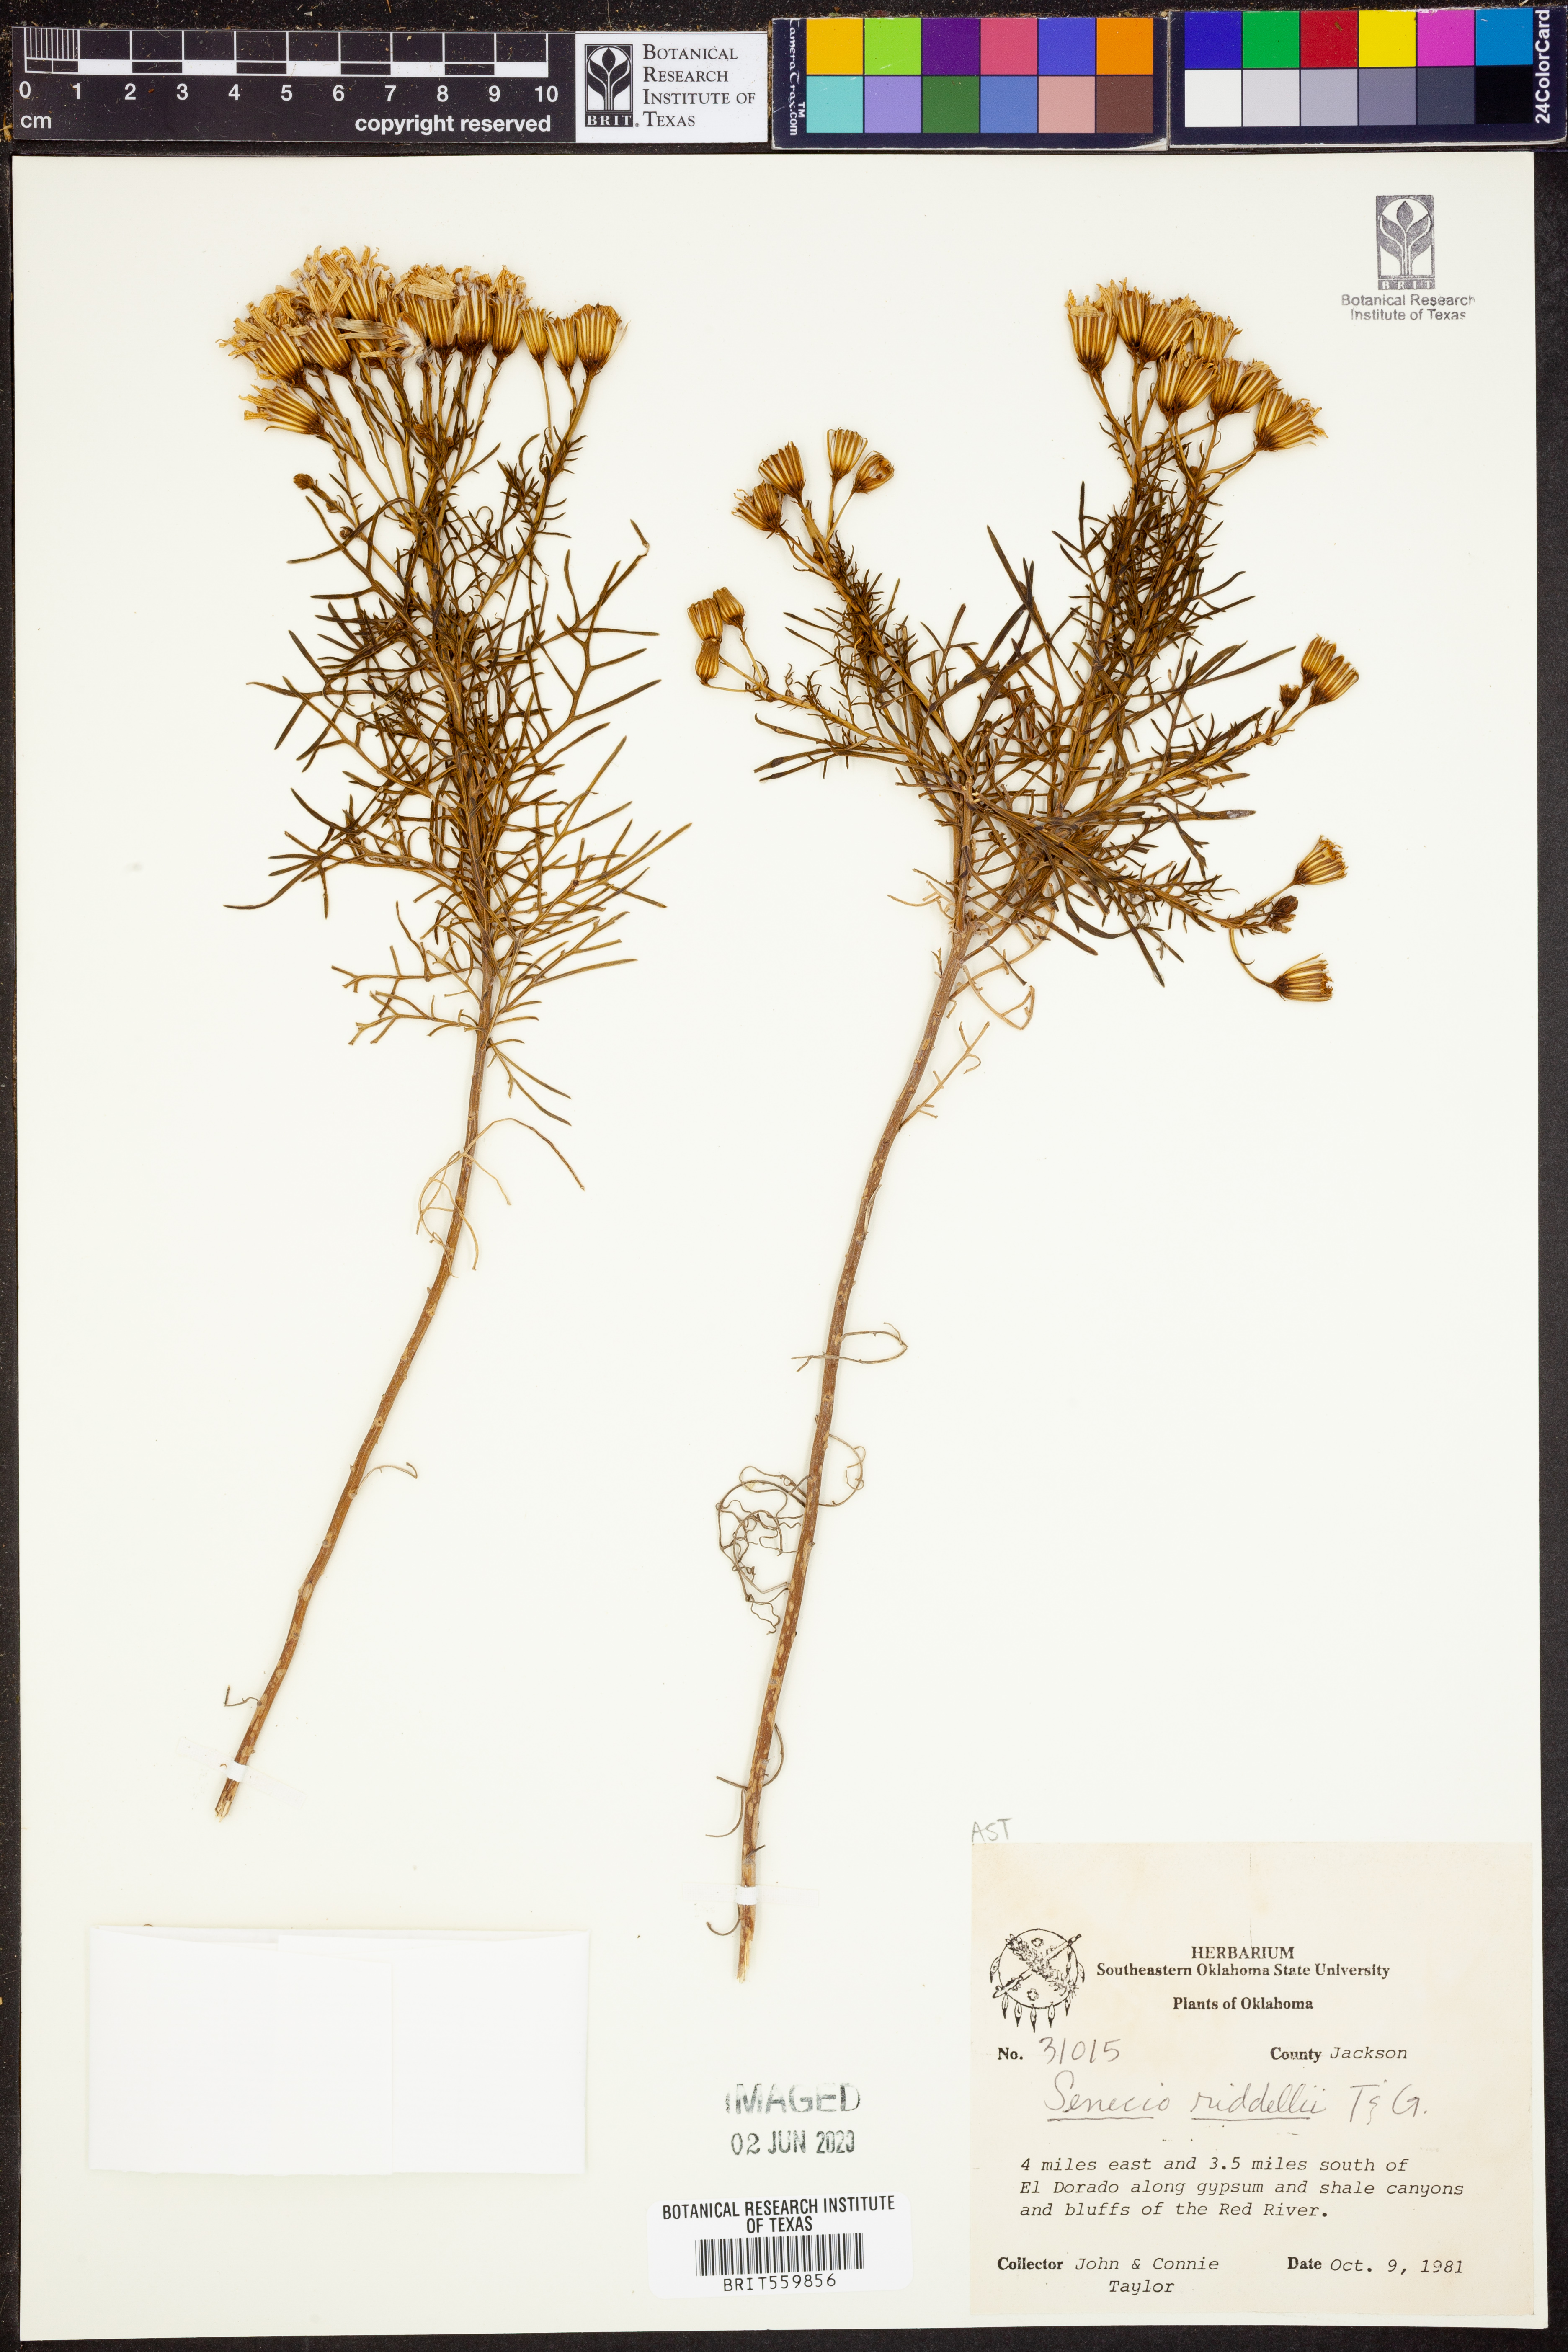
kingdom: Plantae
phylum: Tracheophyta
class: Magnoliopsida
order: Asterales
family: Asteraceae
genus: Senecio
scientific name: Senecio riddellii
